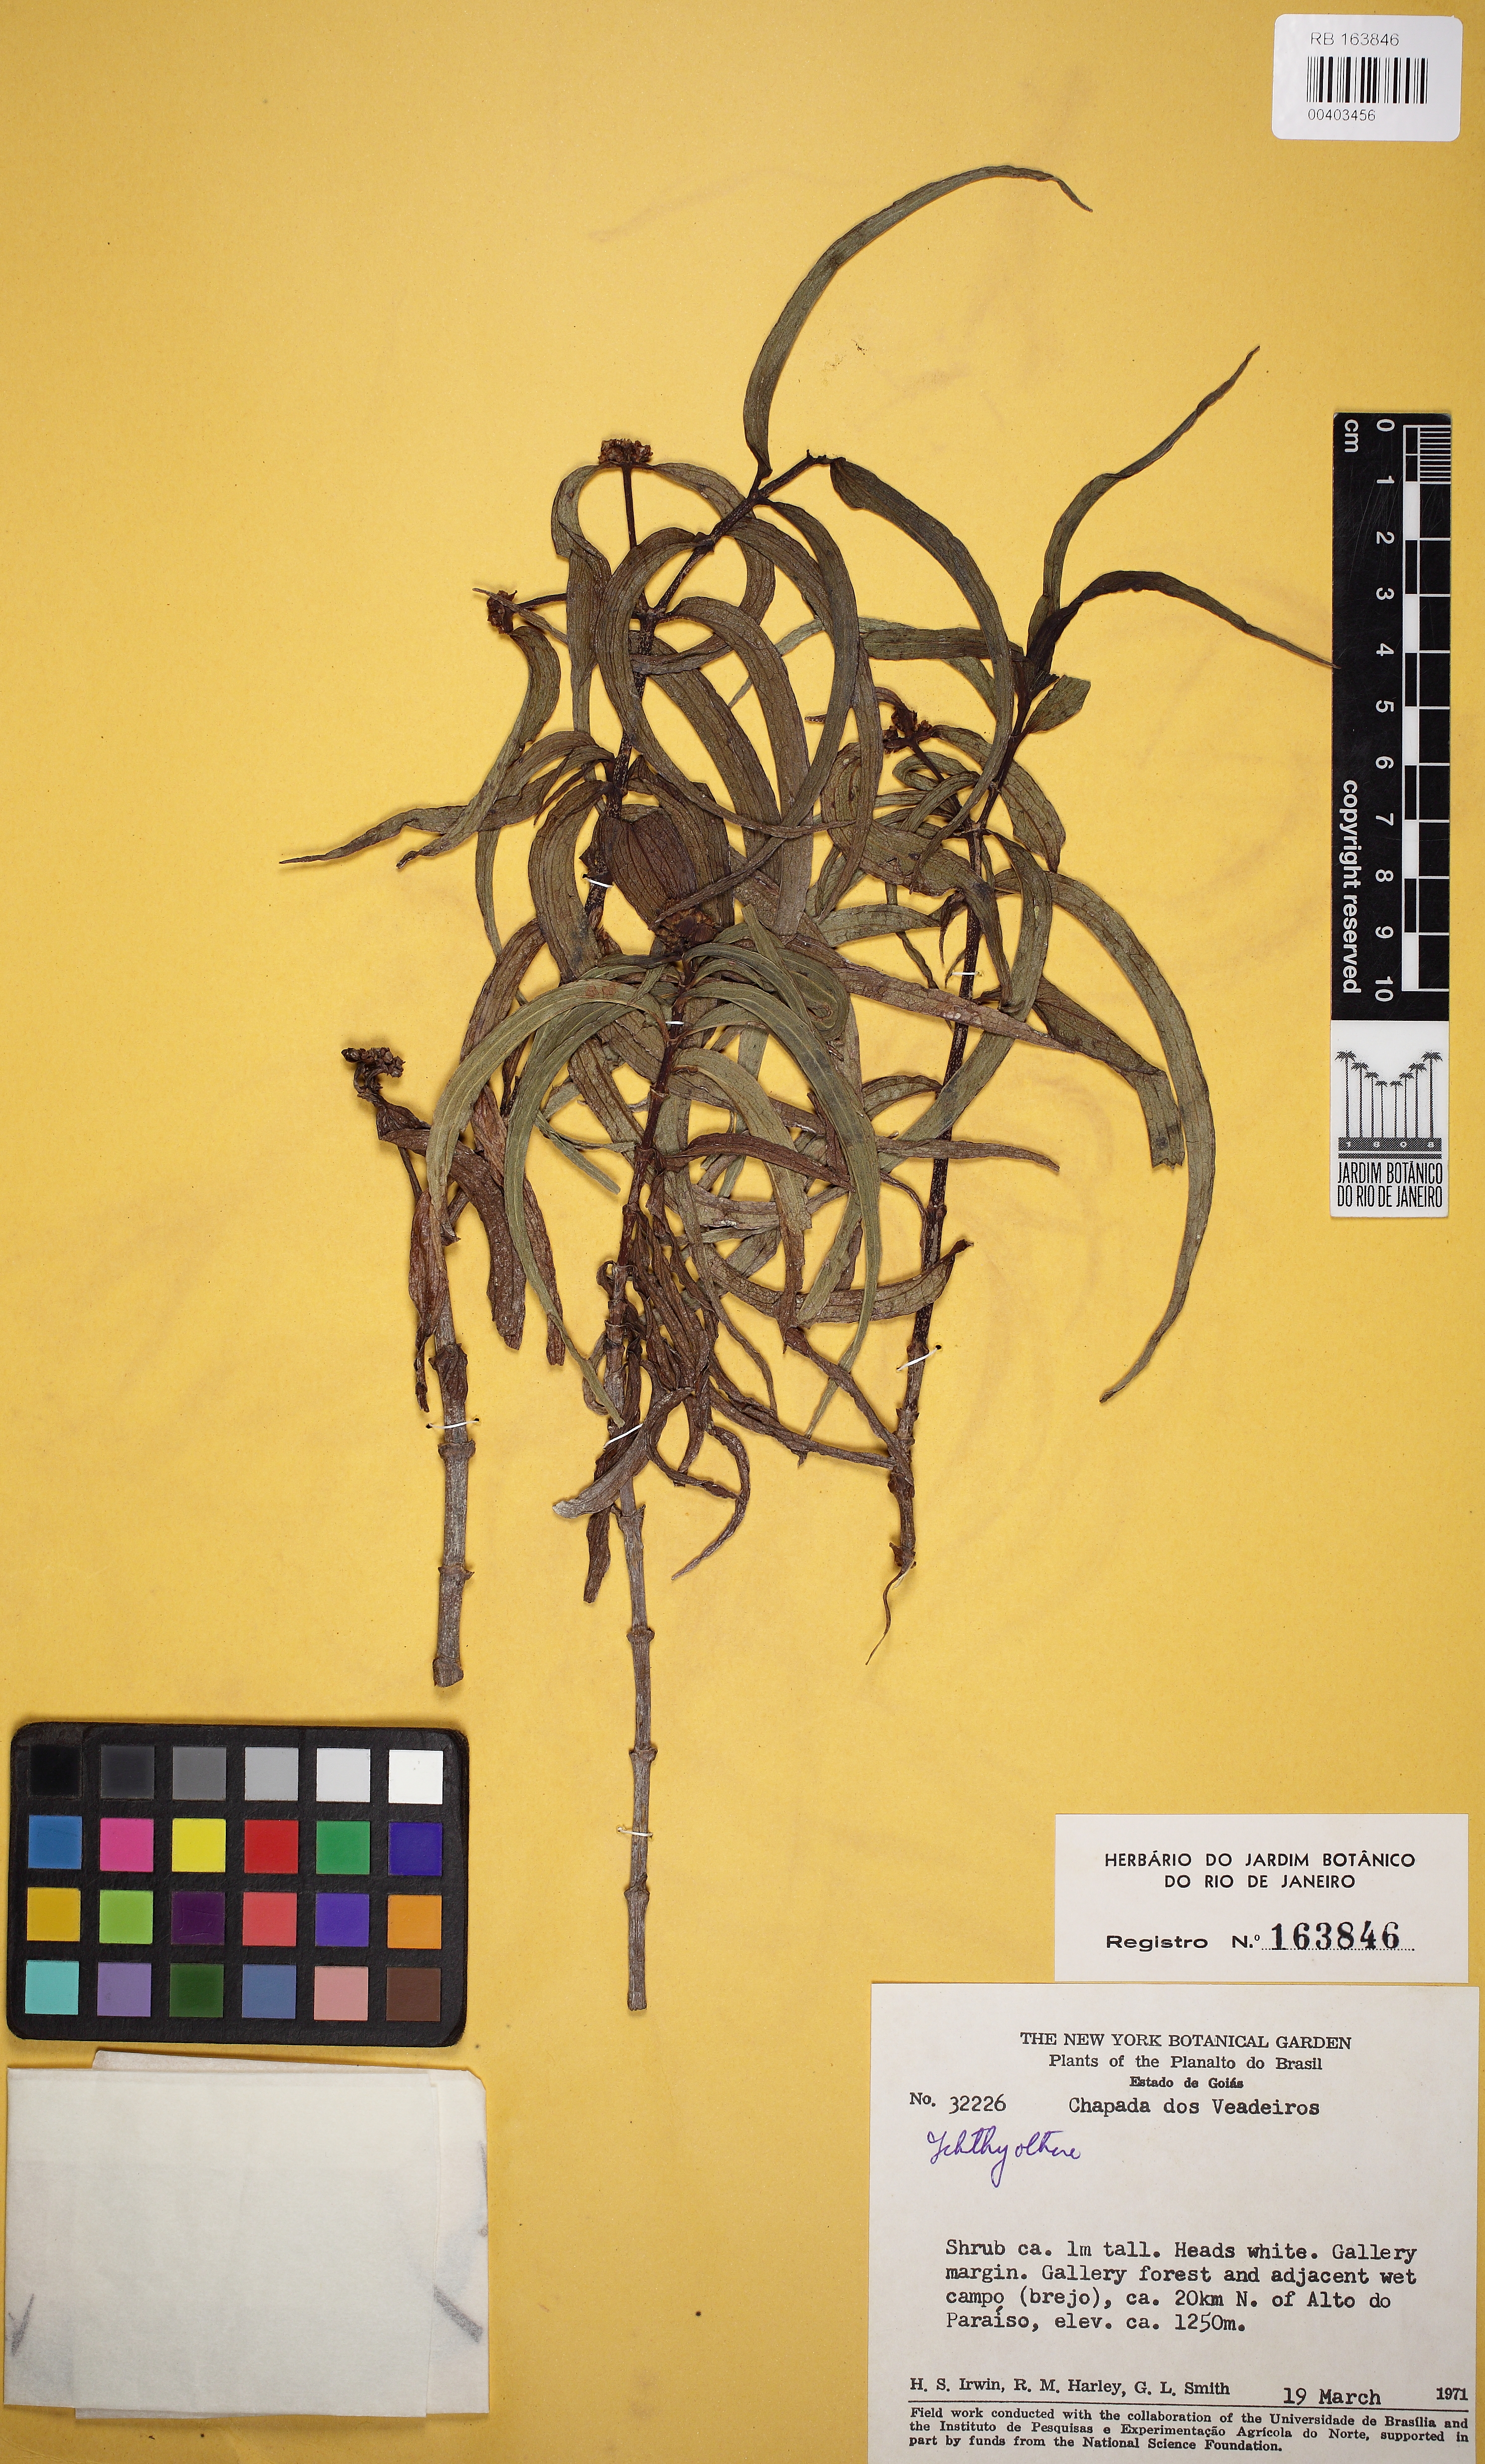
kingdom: Plantae
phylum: Tracheophyta
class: Magnoliopsida
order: Asterales
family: Asteraceae
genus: Ichthyothere
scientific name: Ichthyothere
